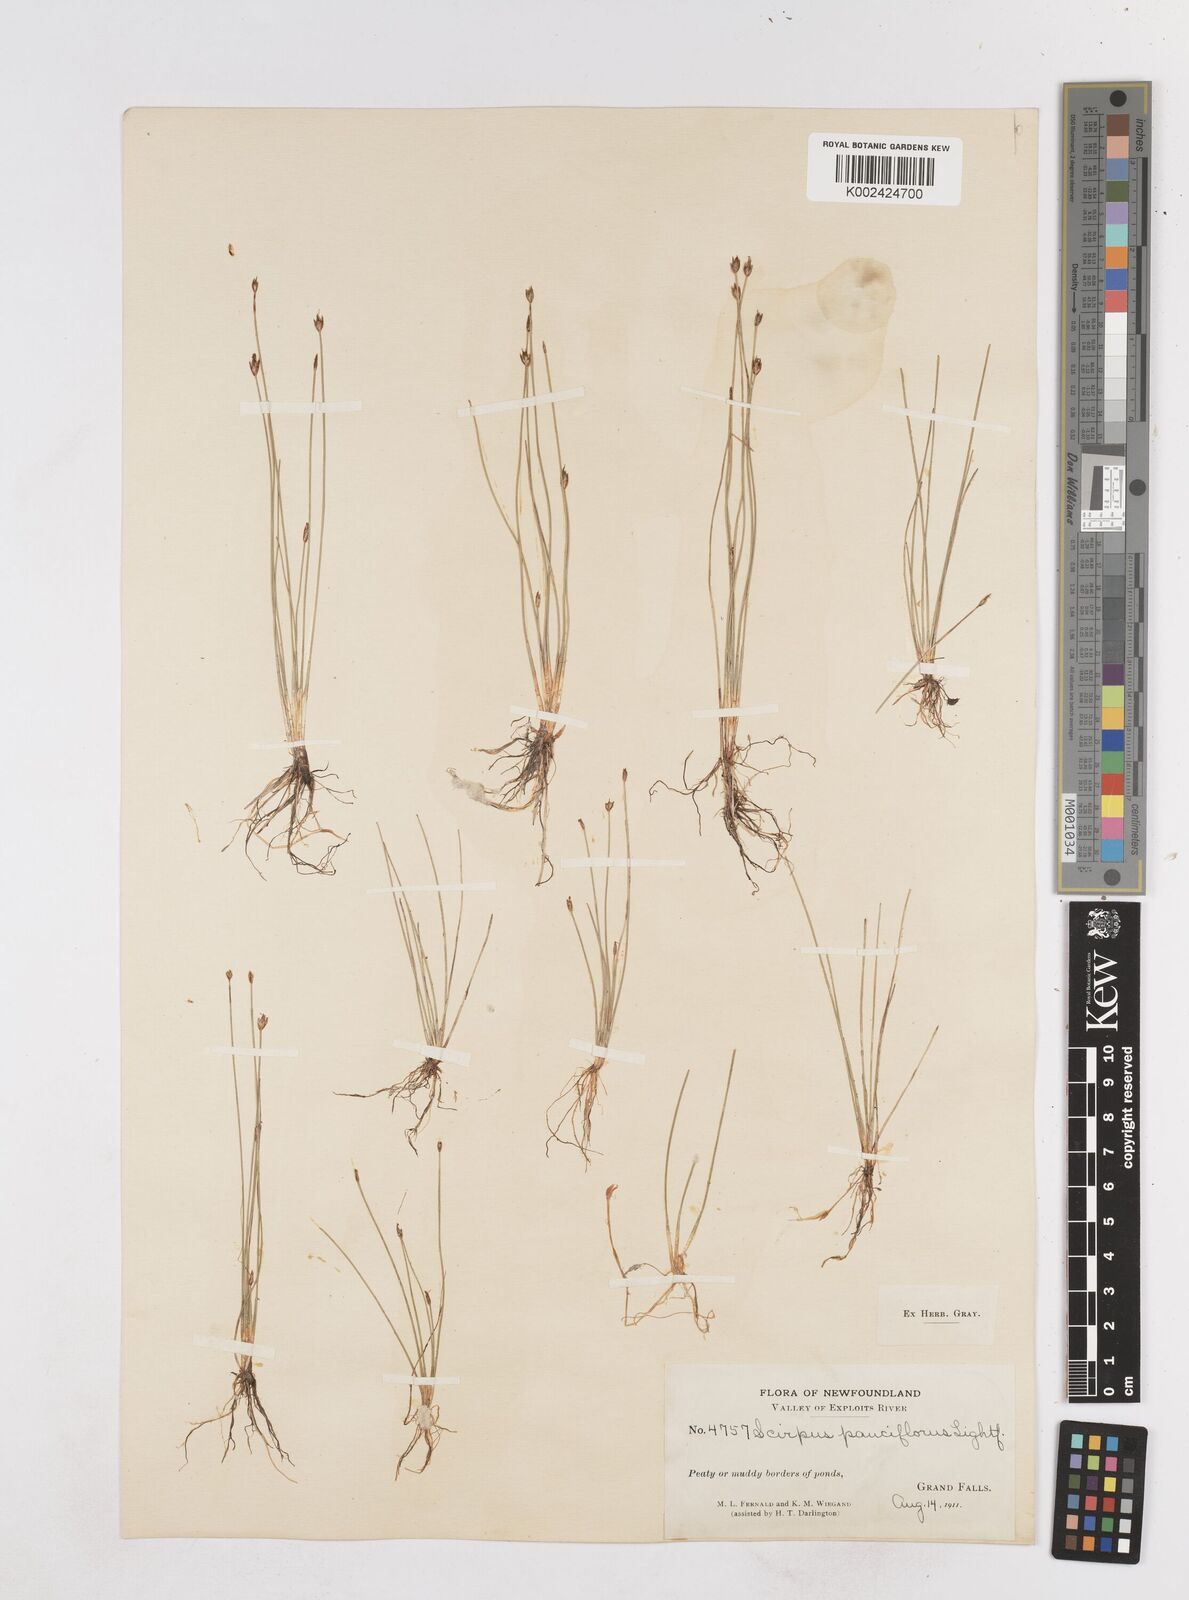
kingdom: Plantae
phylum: Tracheophyta
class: Liliopsida
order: Poales
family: Cyperaceae
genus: Eleocharis
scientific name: Eleocharis quinqueflora
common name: Few-flowered spike-rush
